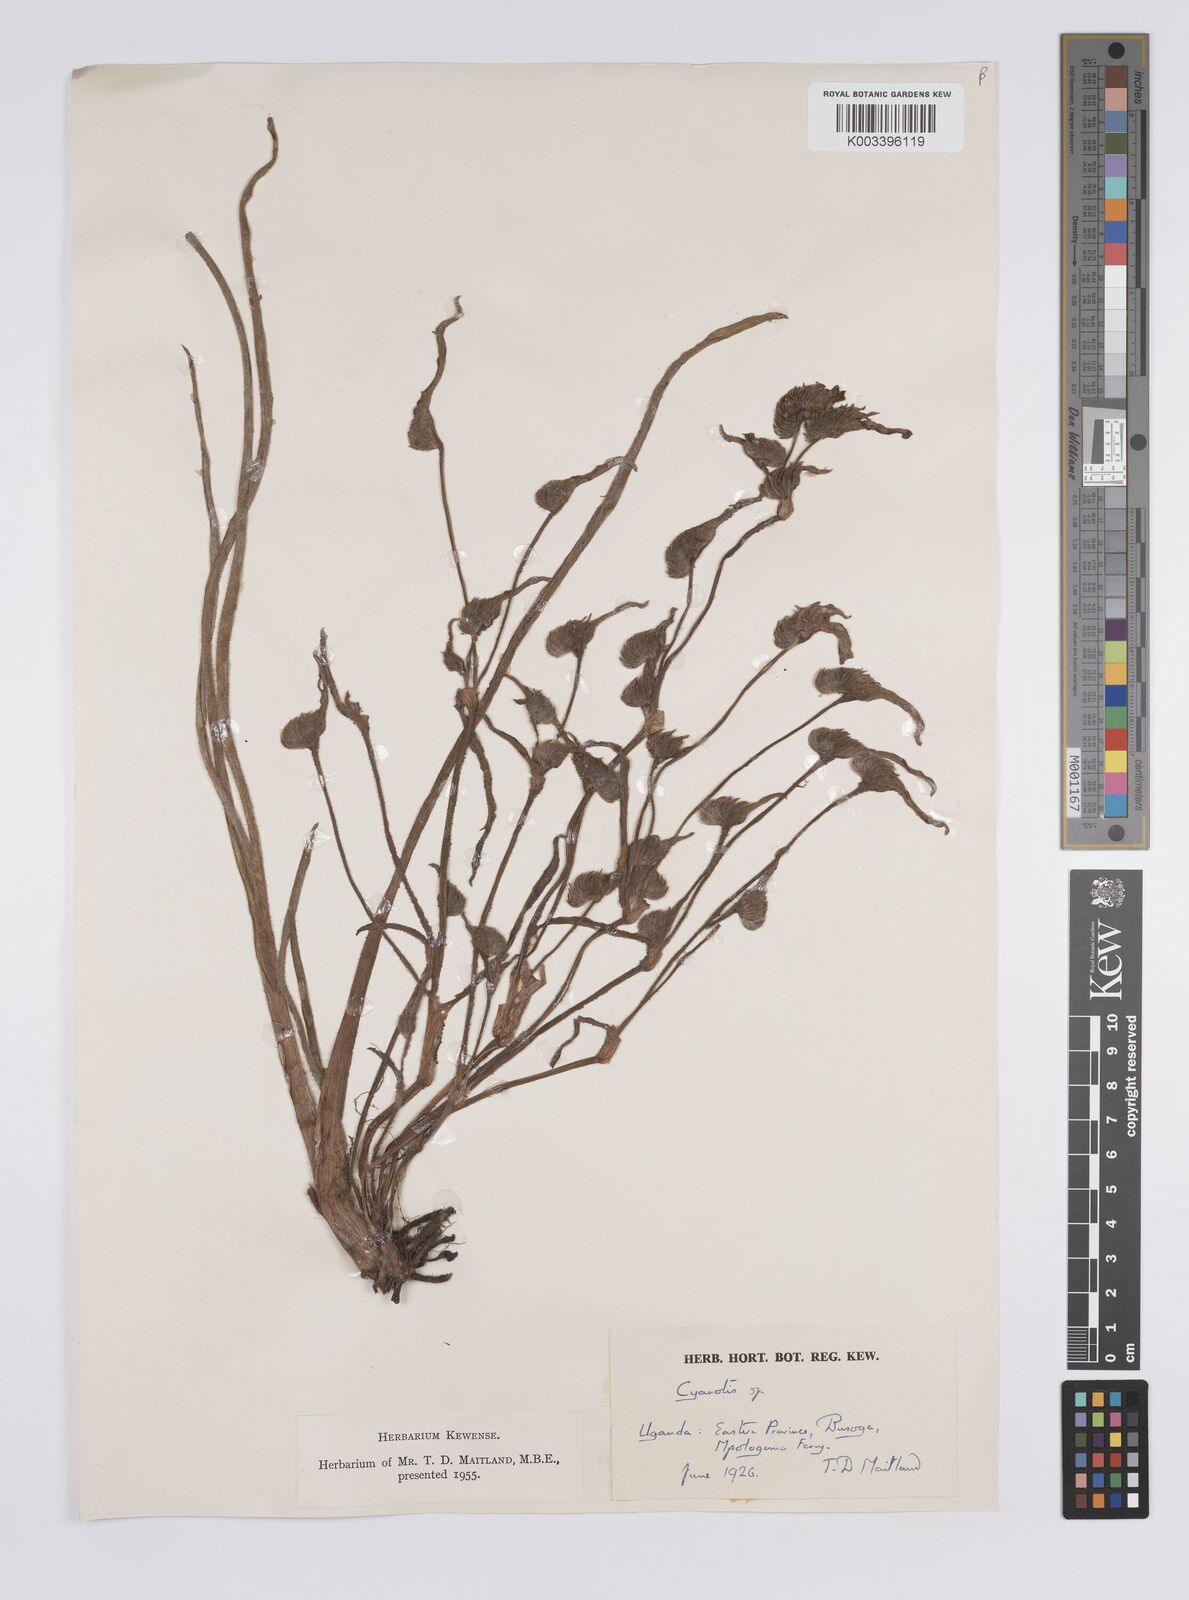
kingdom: Plantae
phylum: Tracheophyta
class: Liliopsida
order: Commelinales
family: Commelinaceae
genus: Cyanotis
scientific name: Cyanotis
